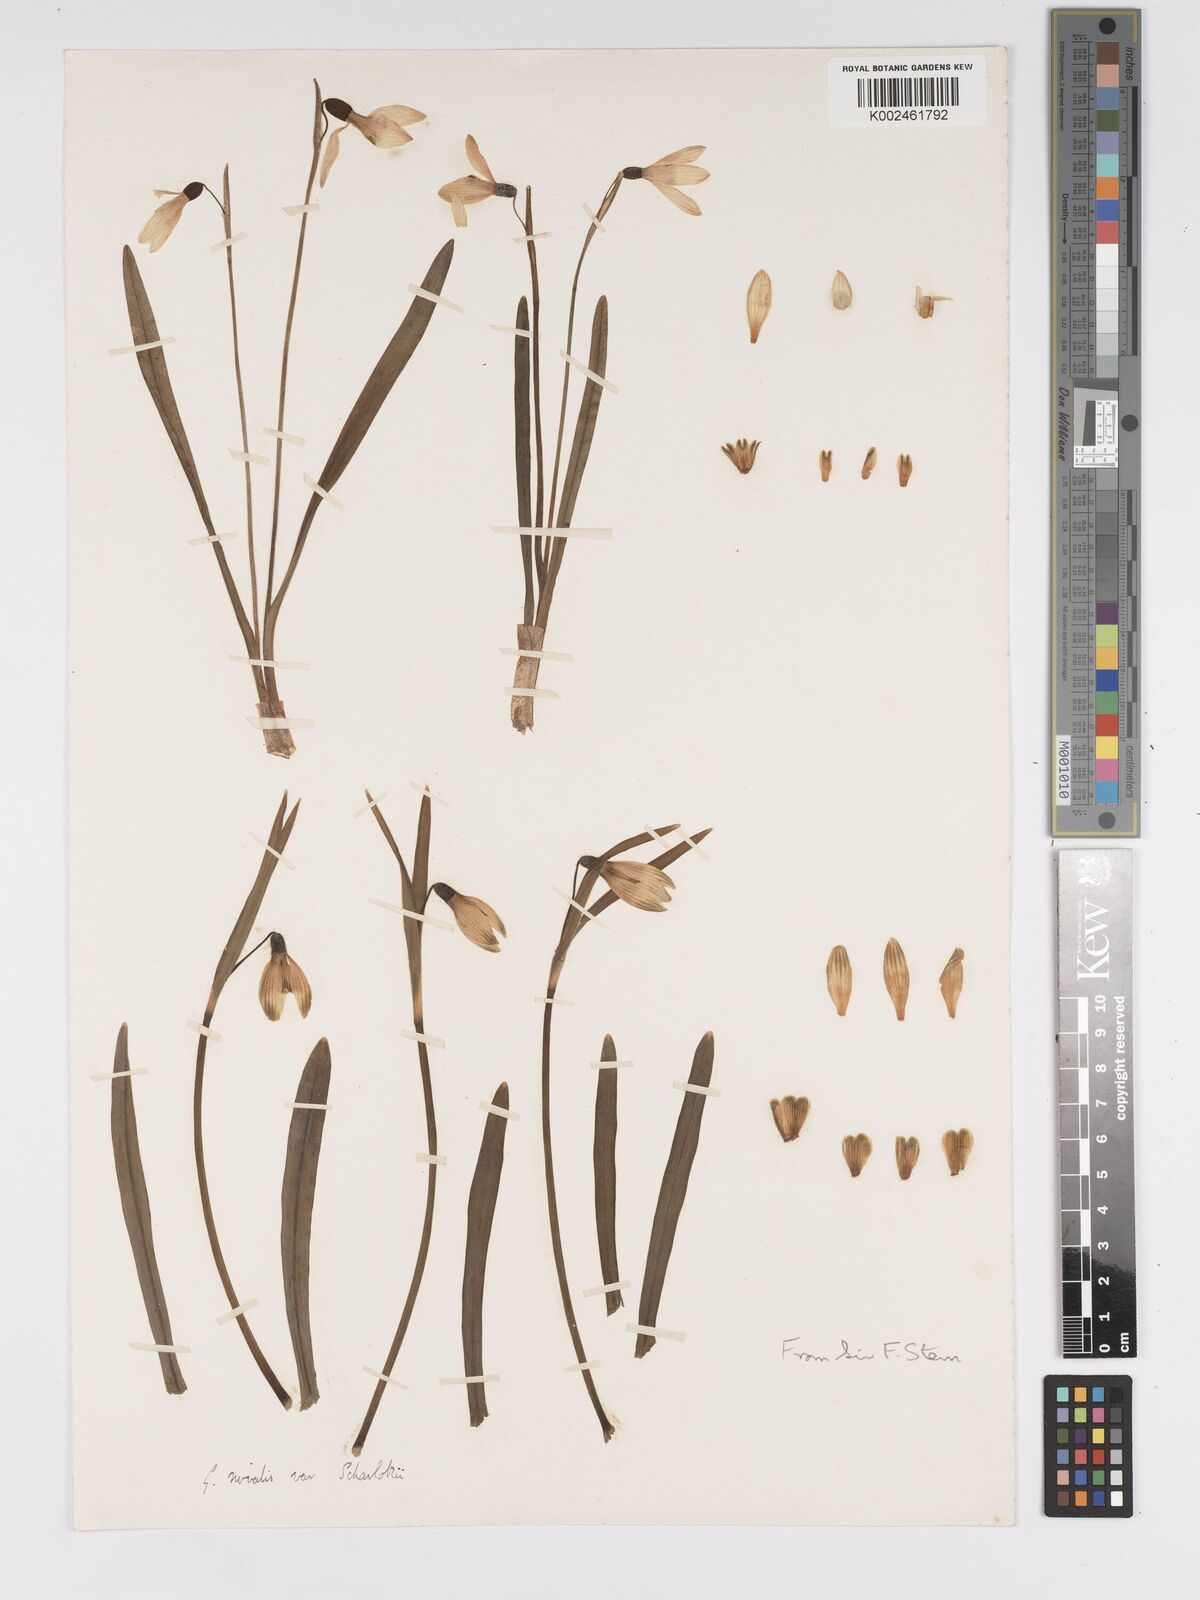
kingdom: Plantae
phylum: Tracheophyta
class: Liliopsida
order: Asparagales
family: Amaryllidaceae
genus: Galanthus
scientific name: Galanthus
